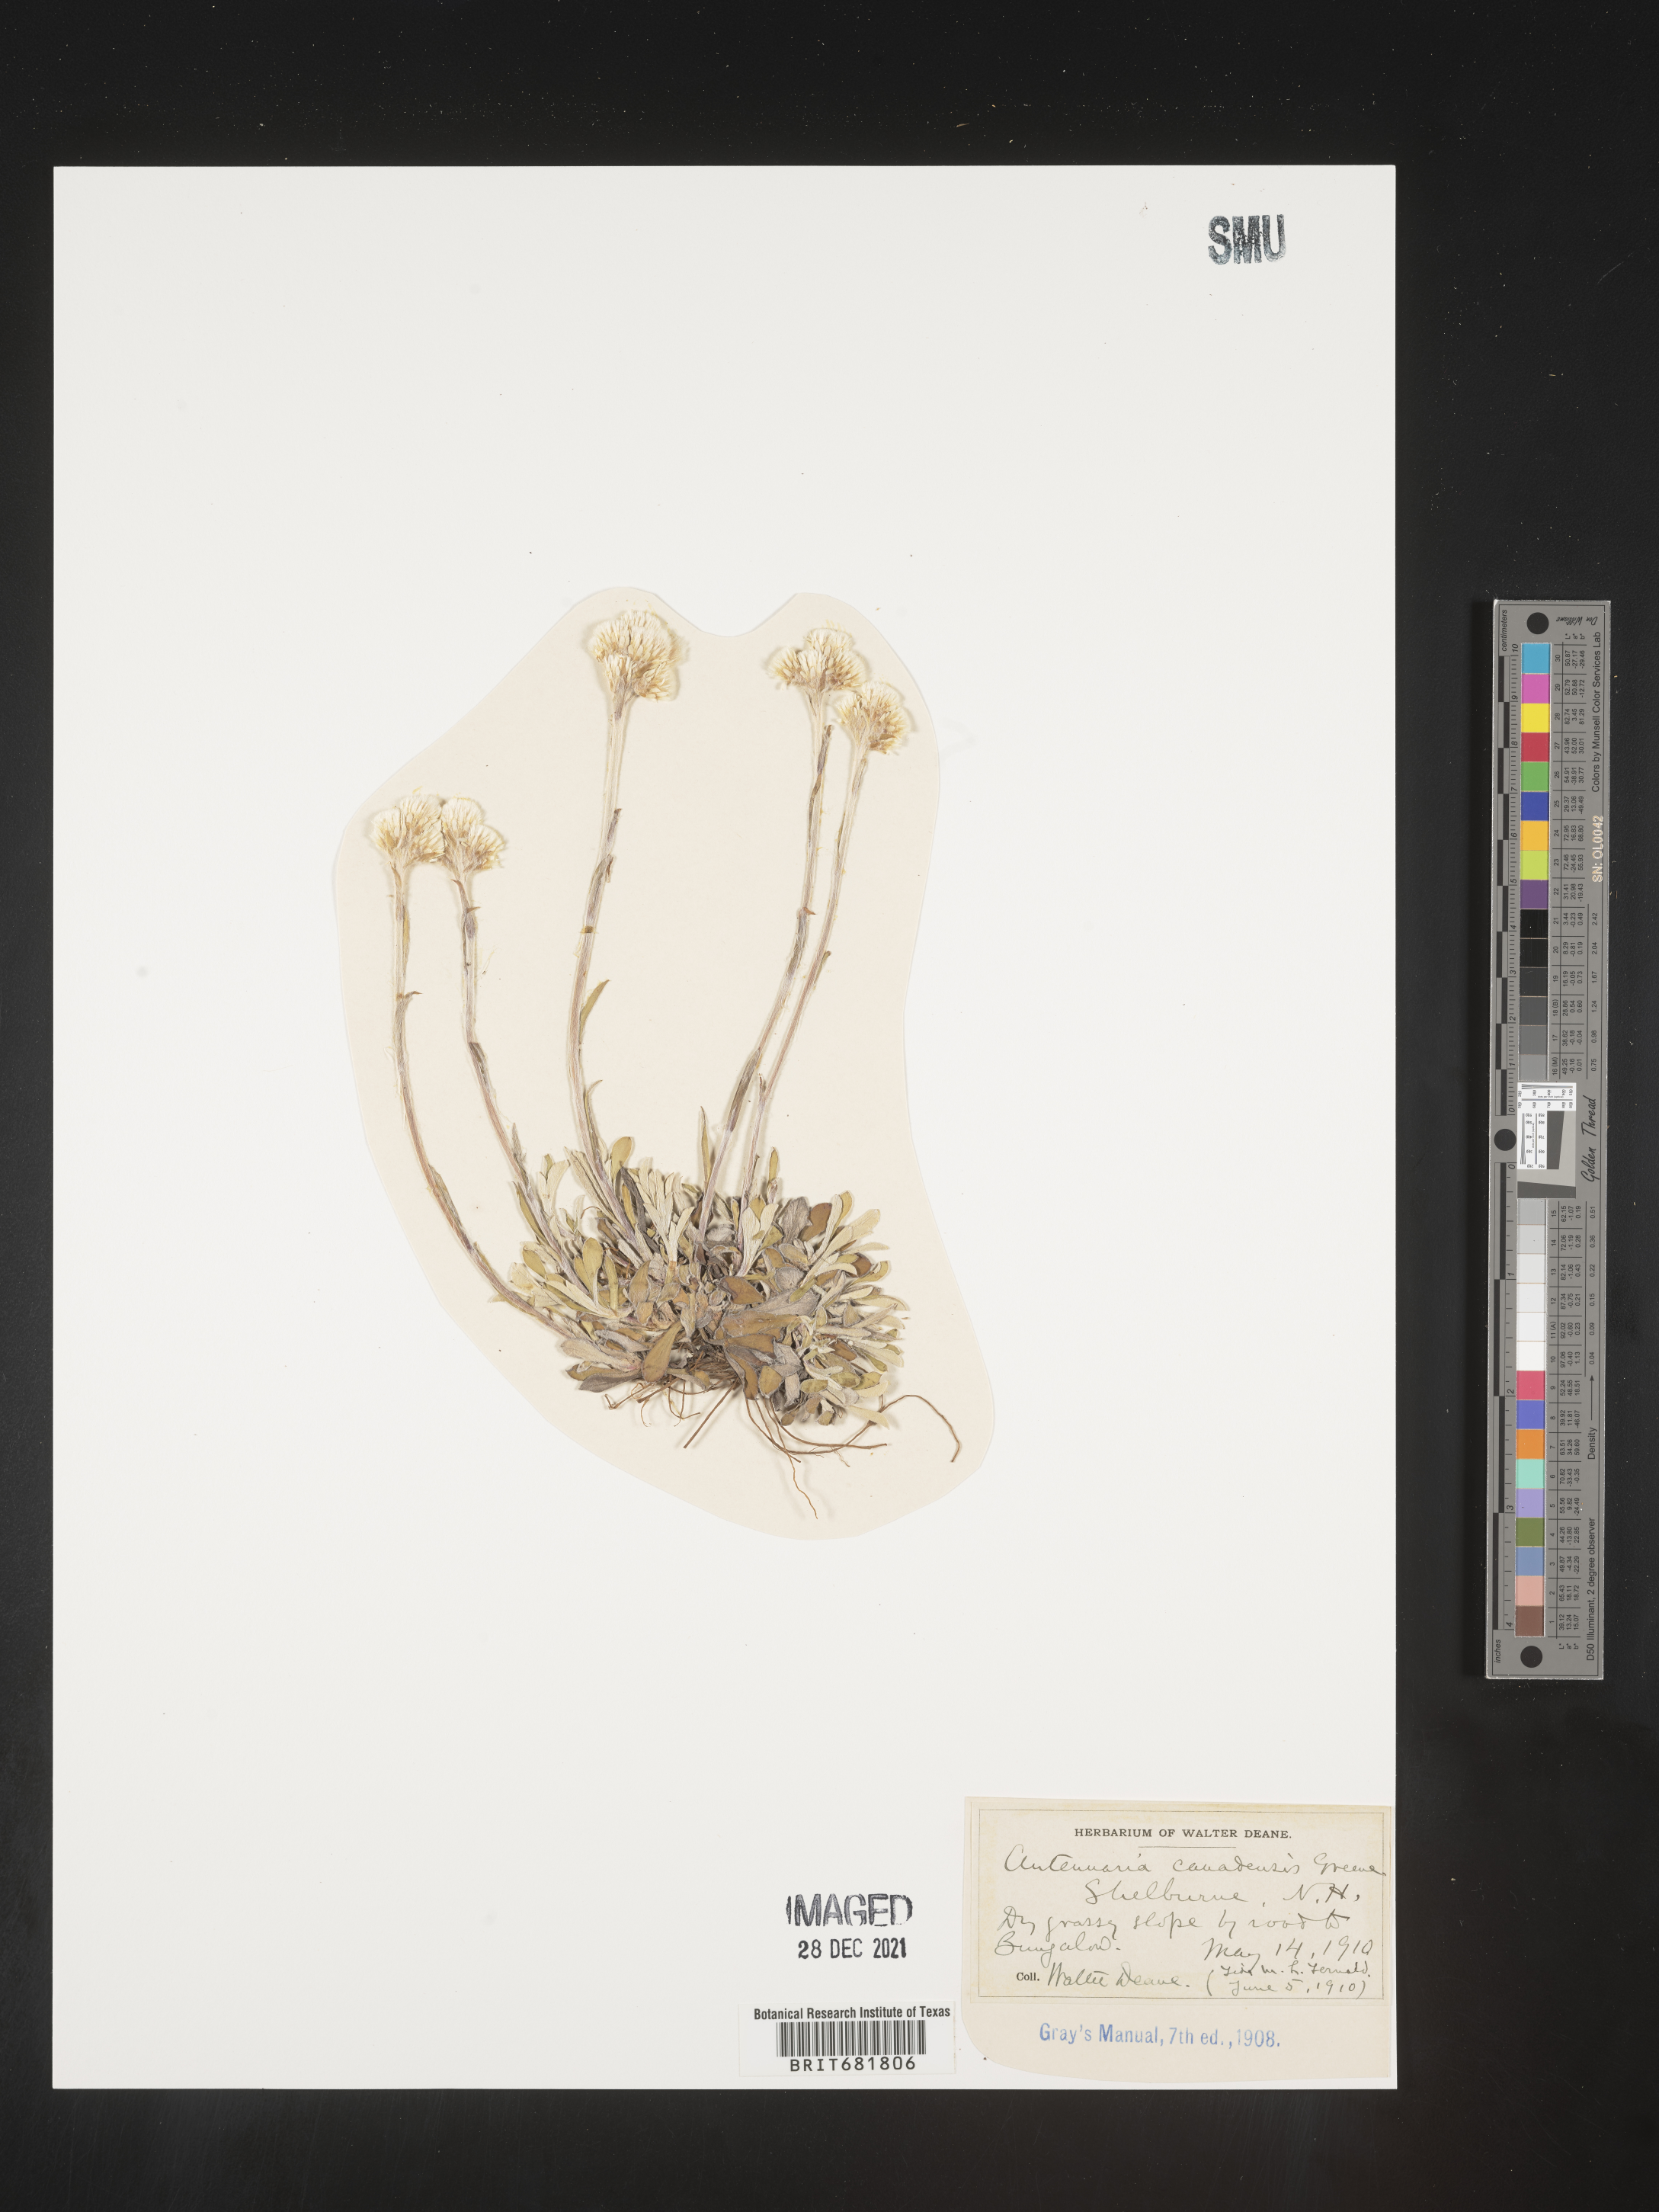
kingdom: Plantae
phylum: Tracheophyta
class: Magnoliopsida
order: Asterales
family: Asteraceae
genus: Antennaria
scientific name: Antennaria howellii
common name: Howell's pussytoes
